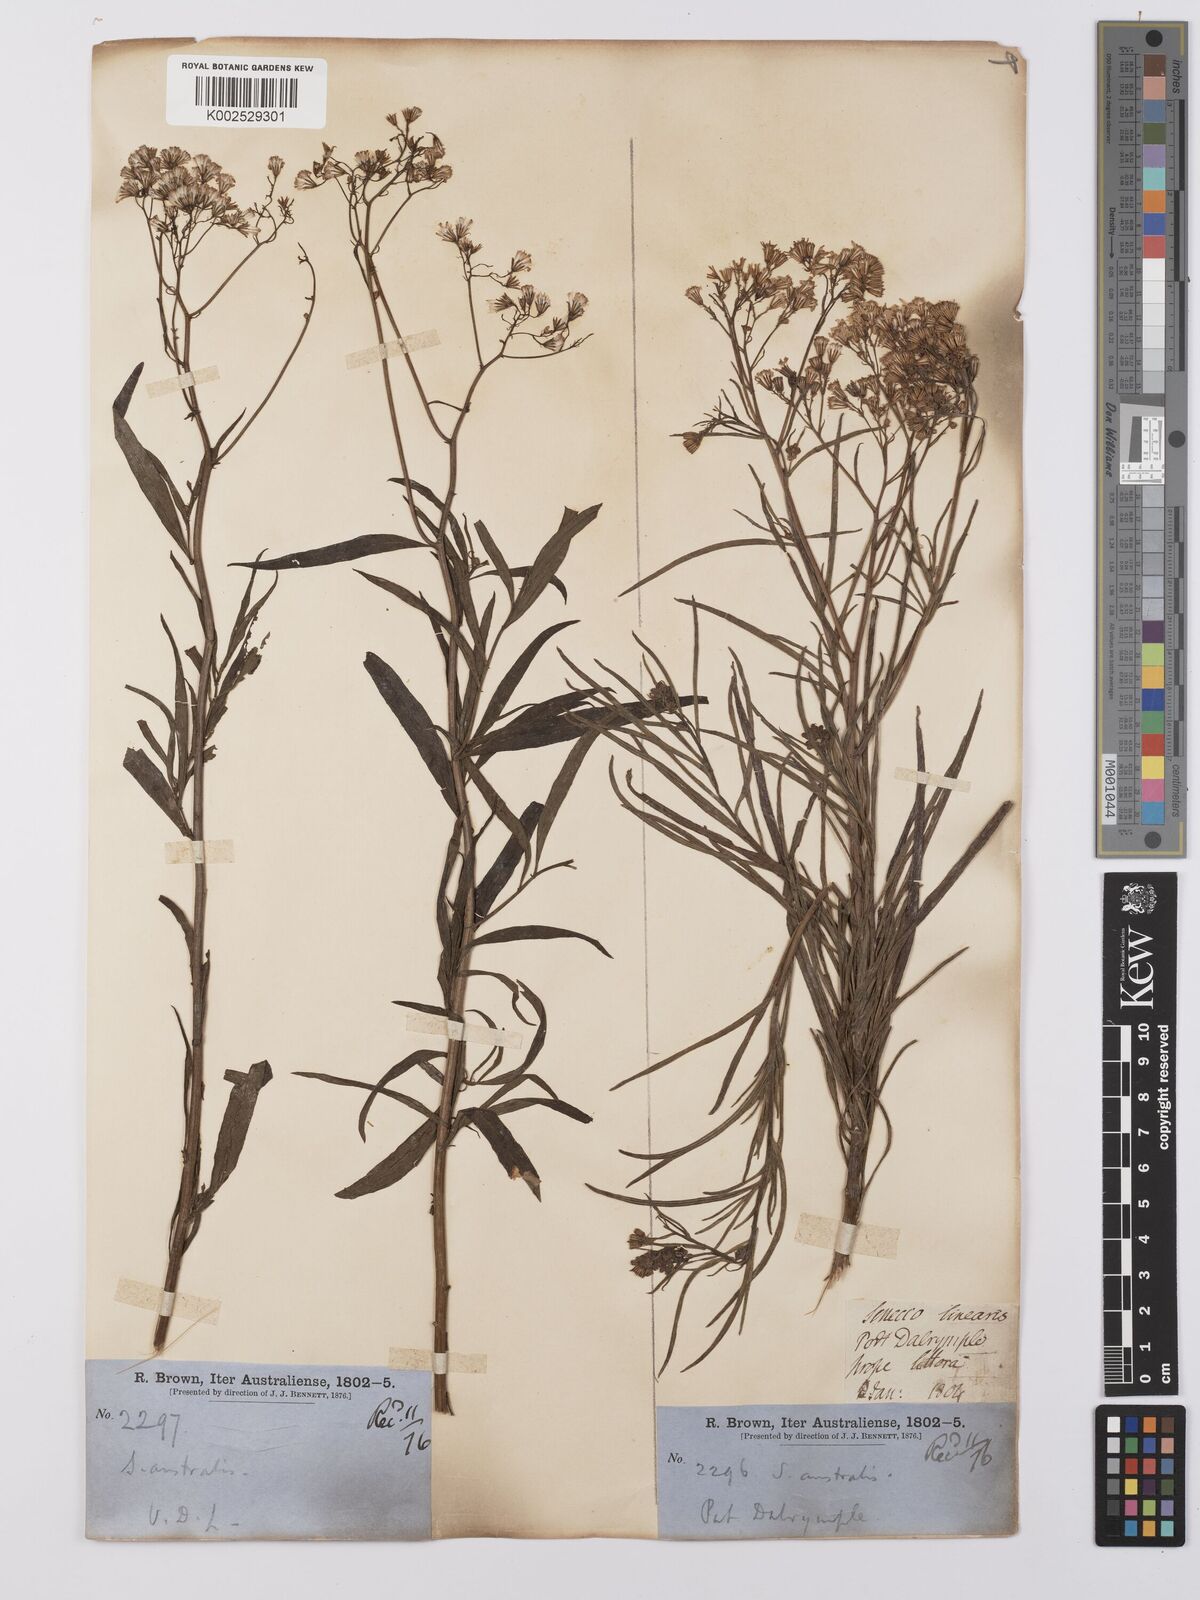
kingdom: Plantae
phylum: Tracheophyta
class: Magnoliopsida
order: Asterales
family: Asteraceae
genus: Senecio
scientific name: Senecio
